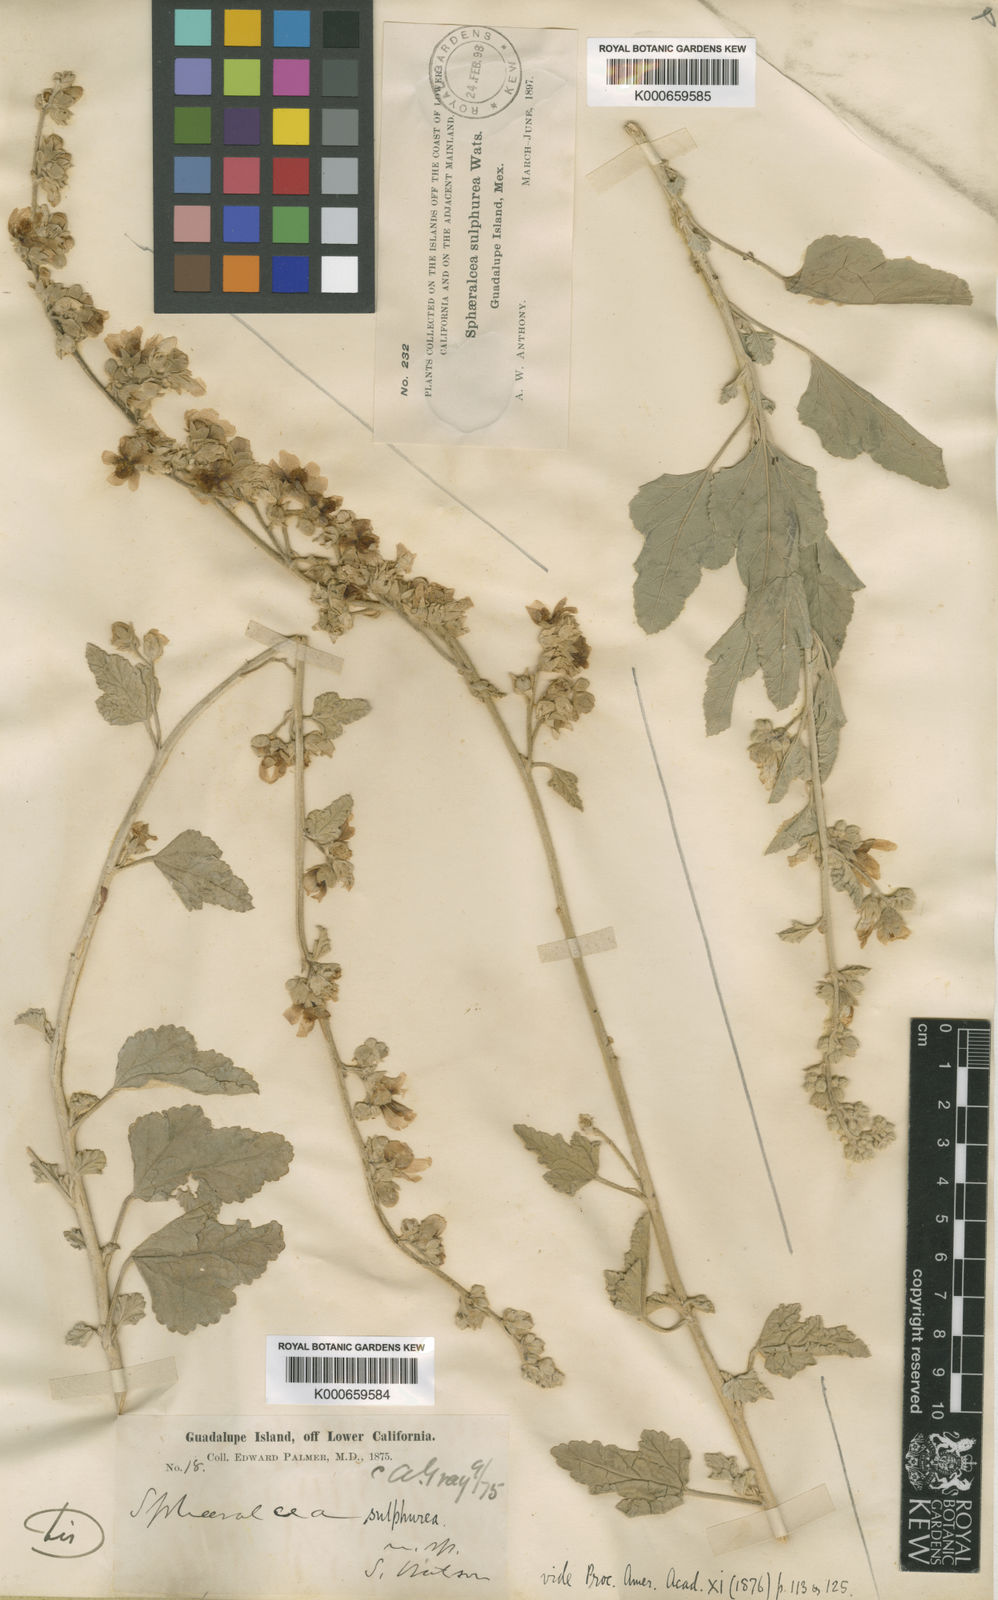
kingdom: Plantae
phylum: Tracheophyta
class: Magnoliopsida
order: Malvales
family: Malvaceae
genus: Sphaeralcea
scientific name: Sphaeralcea sulphurea
